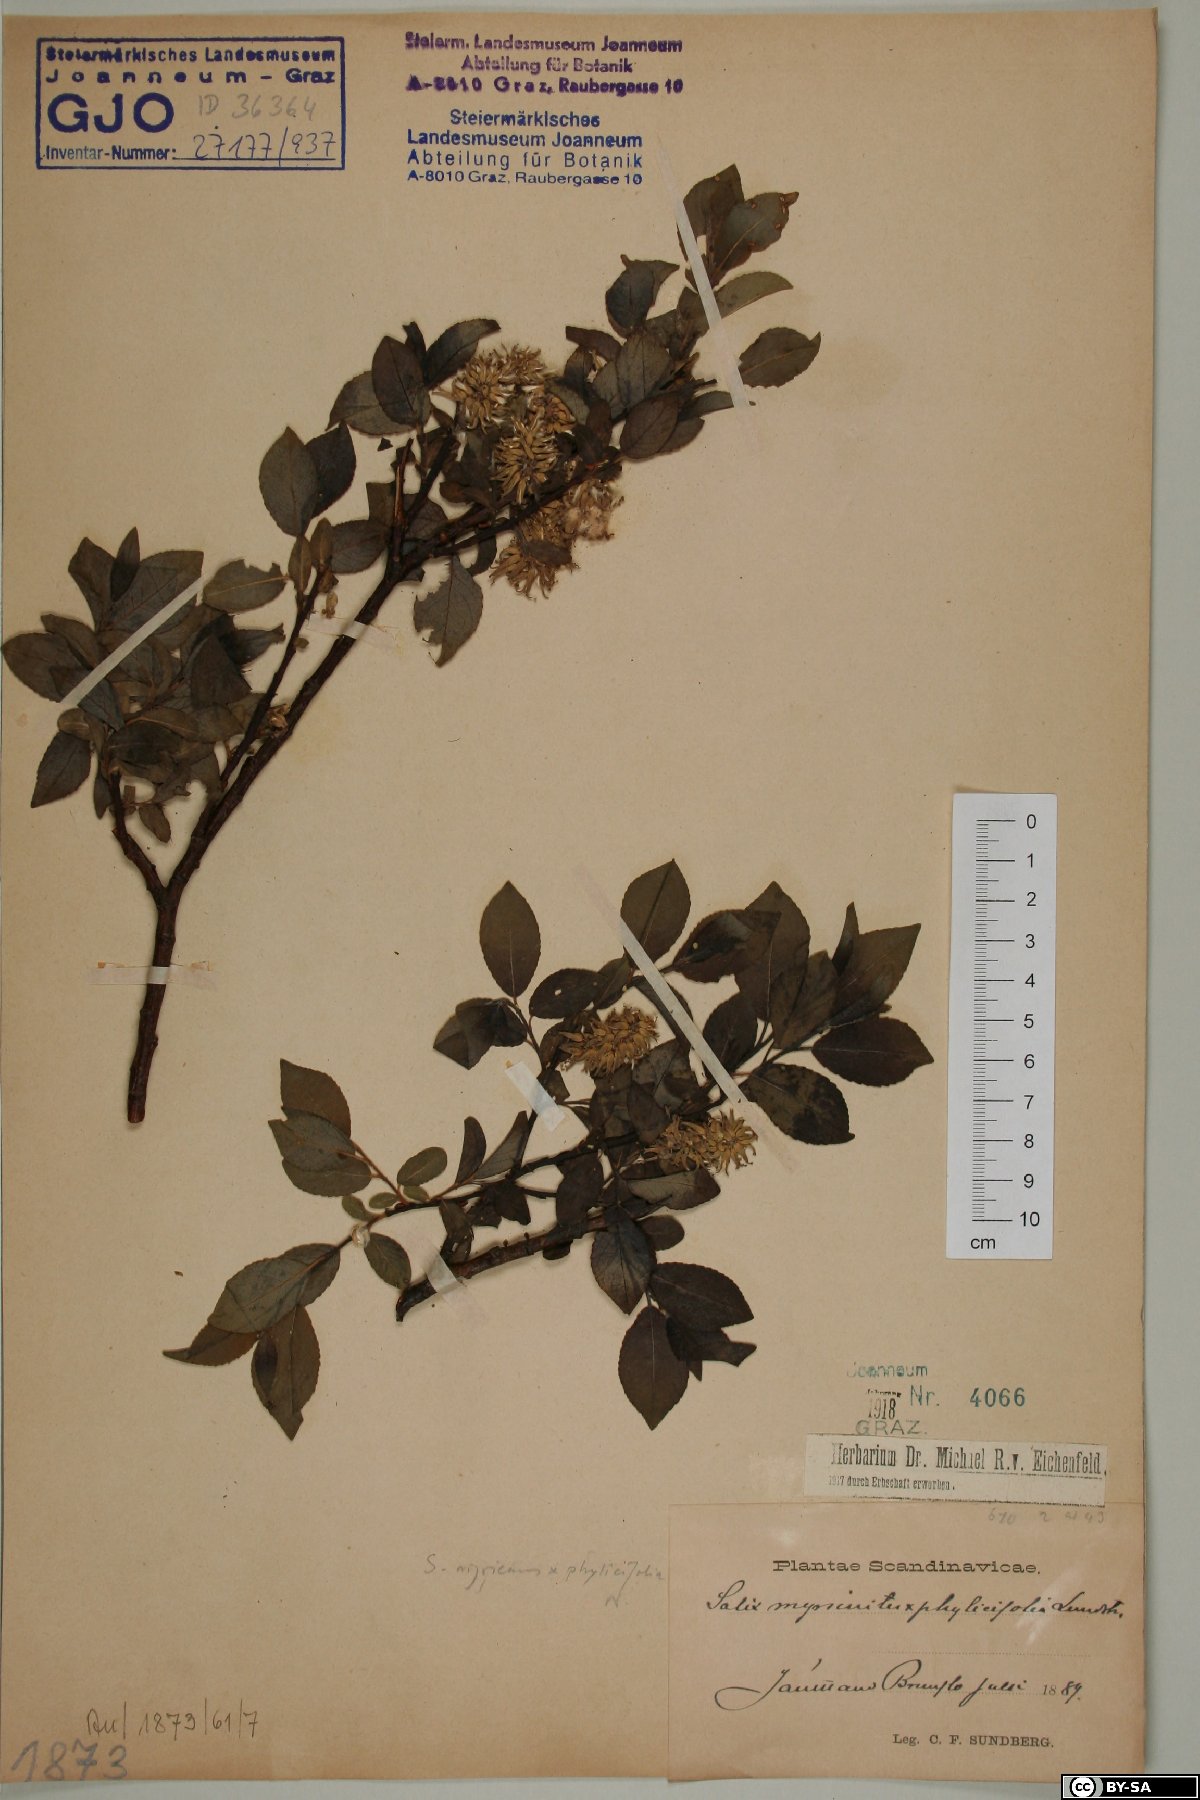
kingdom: Plantae
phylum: Tracheophyta
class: Magnoliopsida
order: Malpighiales
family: Salicaceae
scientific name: Salicaceae
